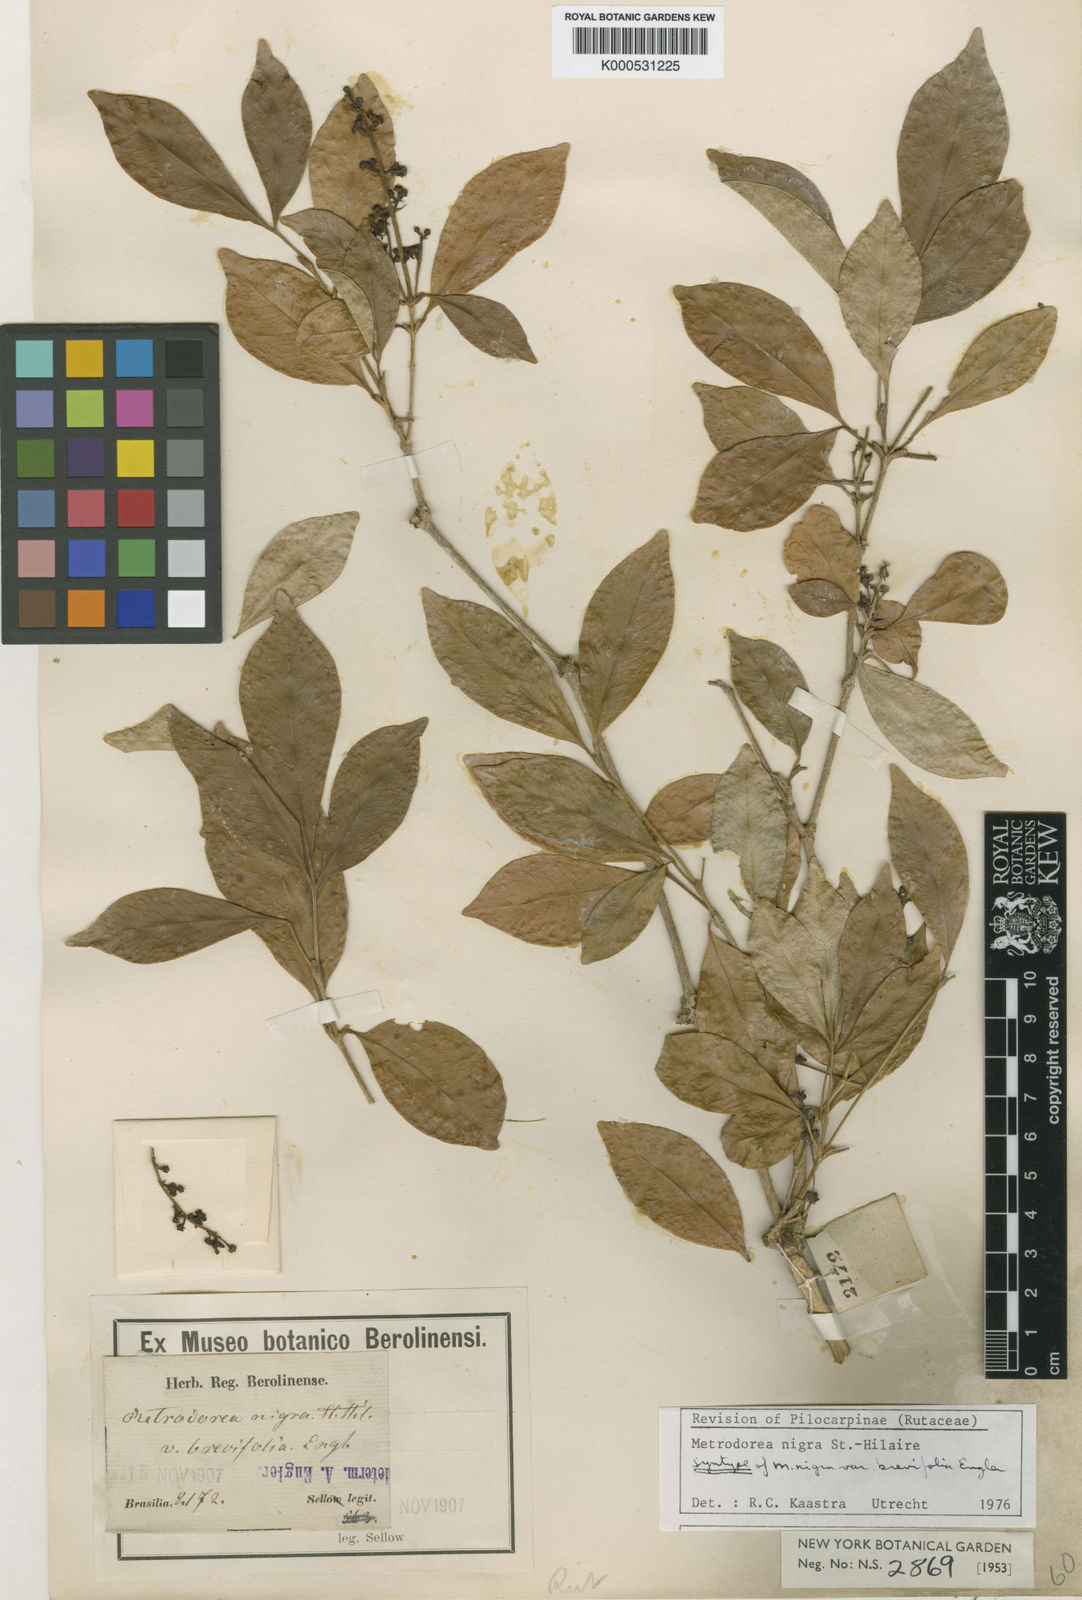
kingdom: Plantae
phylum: Tracheophyta
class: Magnoliopsida
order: Sapindales
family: Rutaceae
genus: Metrodorea
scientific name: Metrodorea nigra
